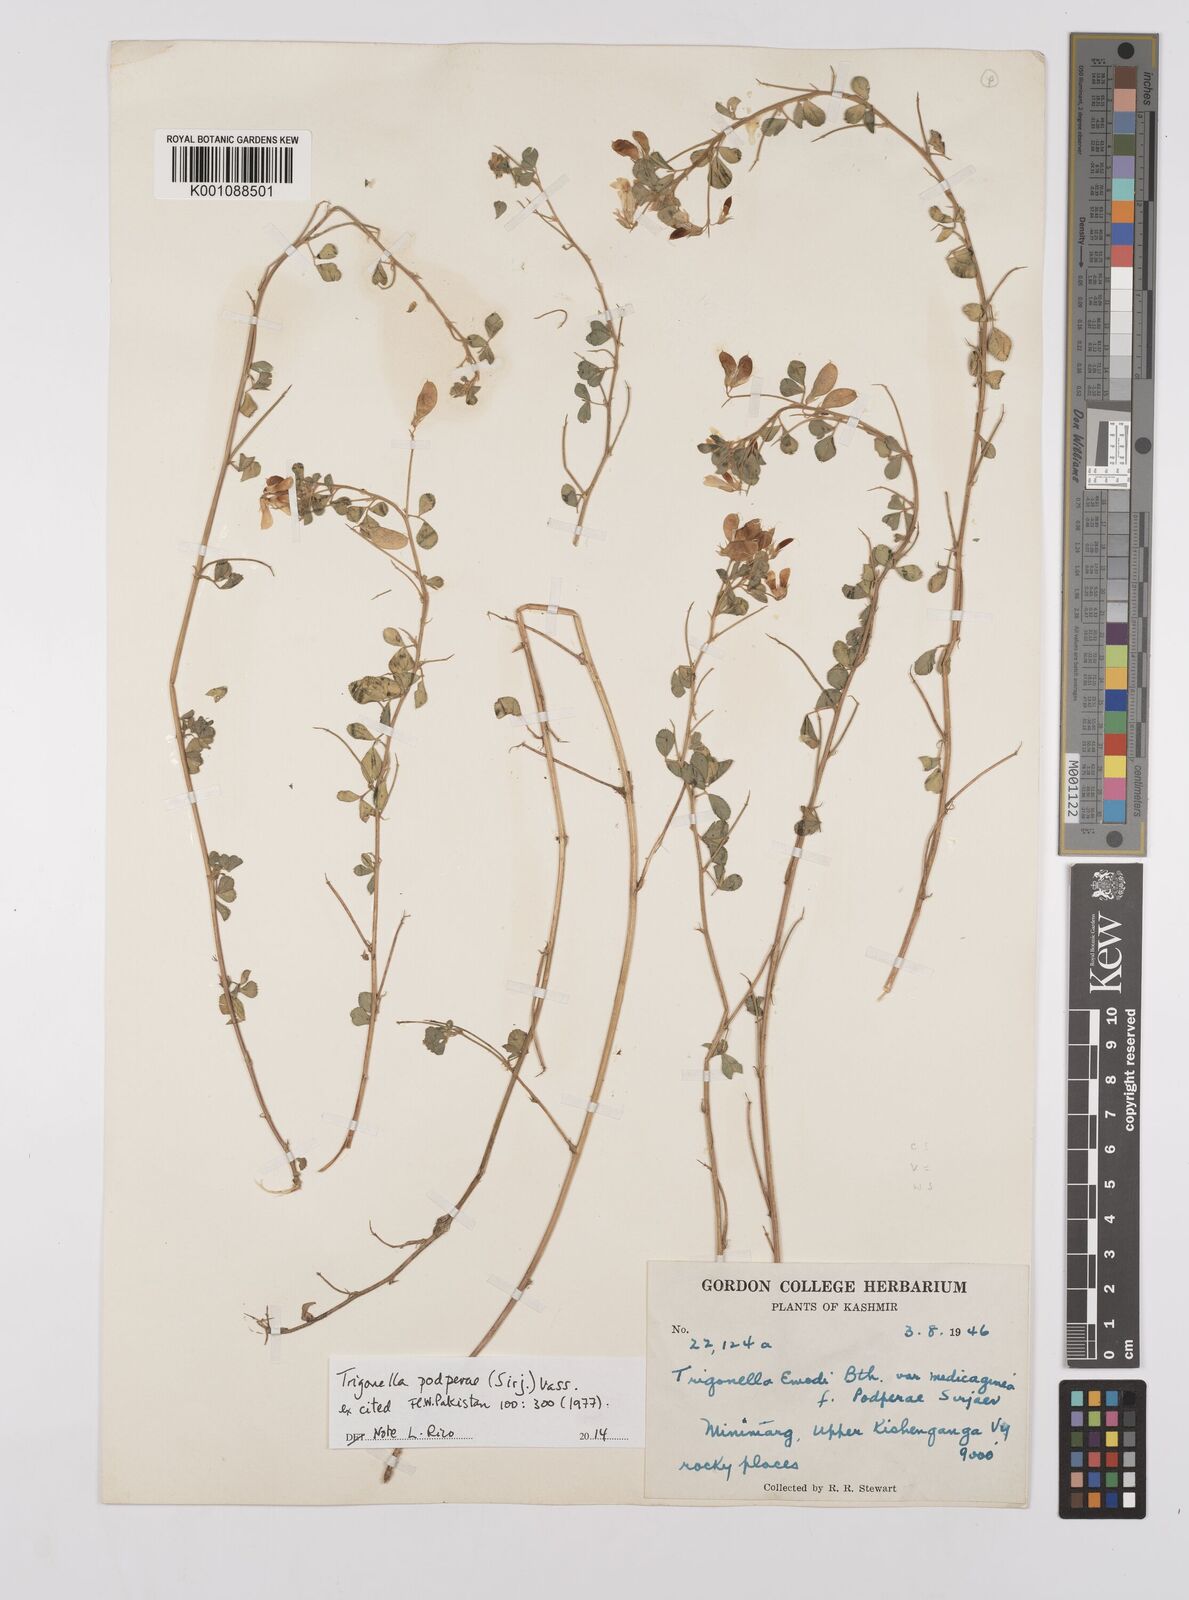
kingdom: Plantae
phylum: Tracheophyta
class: Magnoliopsida
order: Fabales
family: Fabaceae
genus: Trigonella
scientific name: Trigonella podperae
